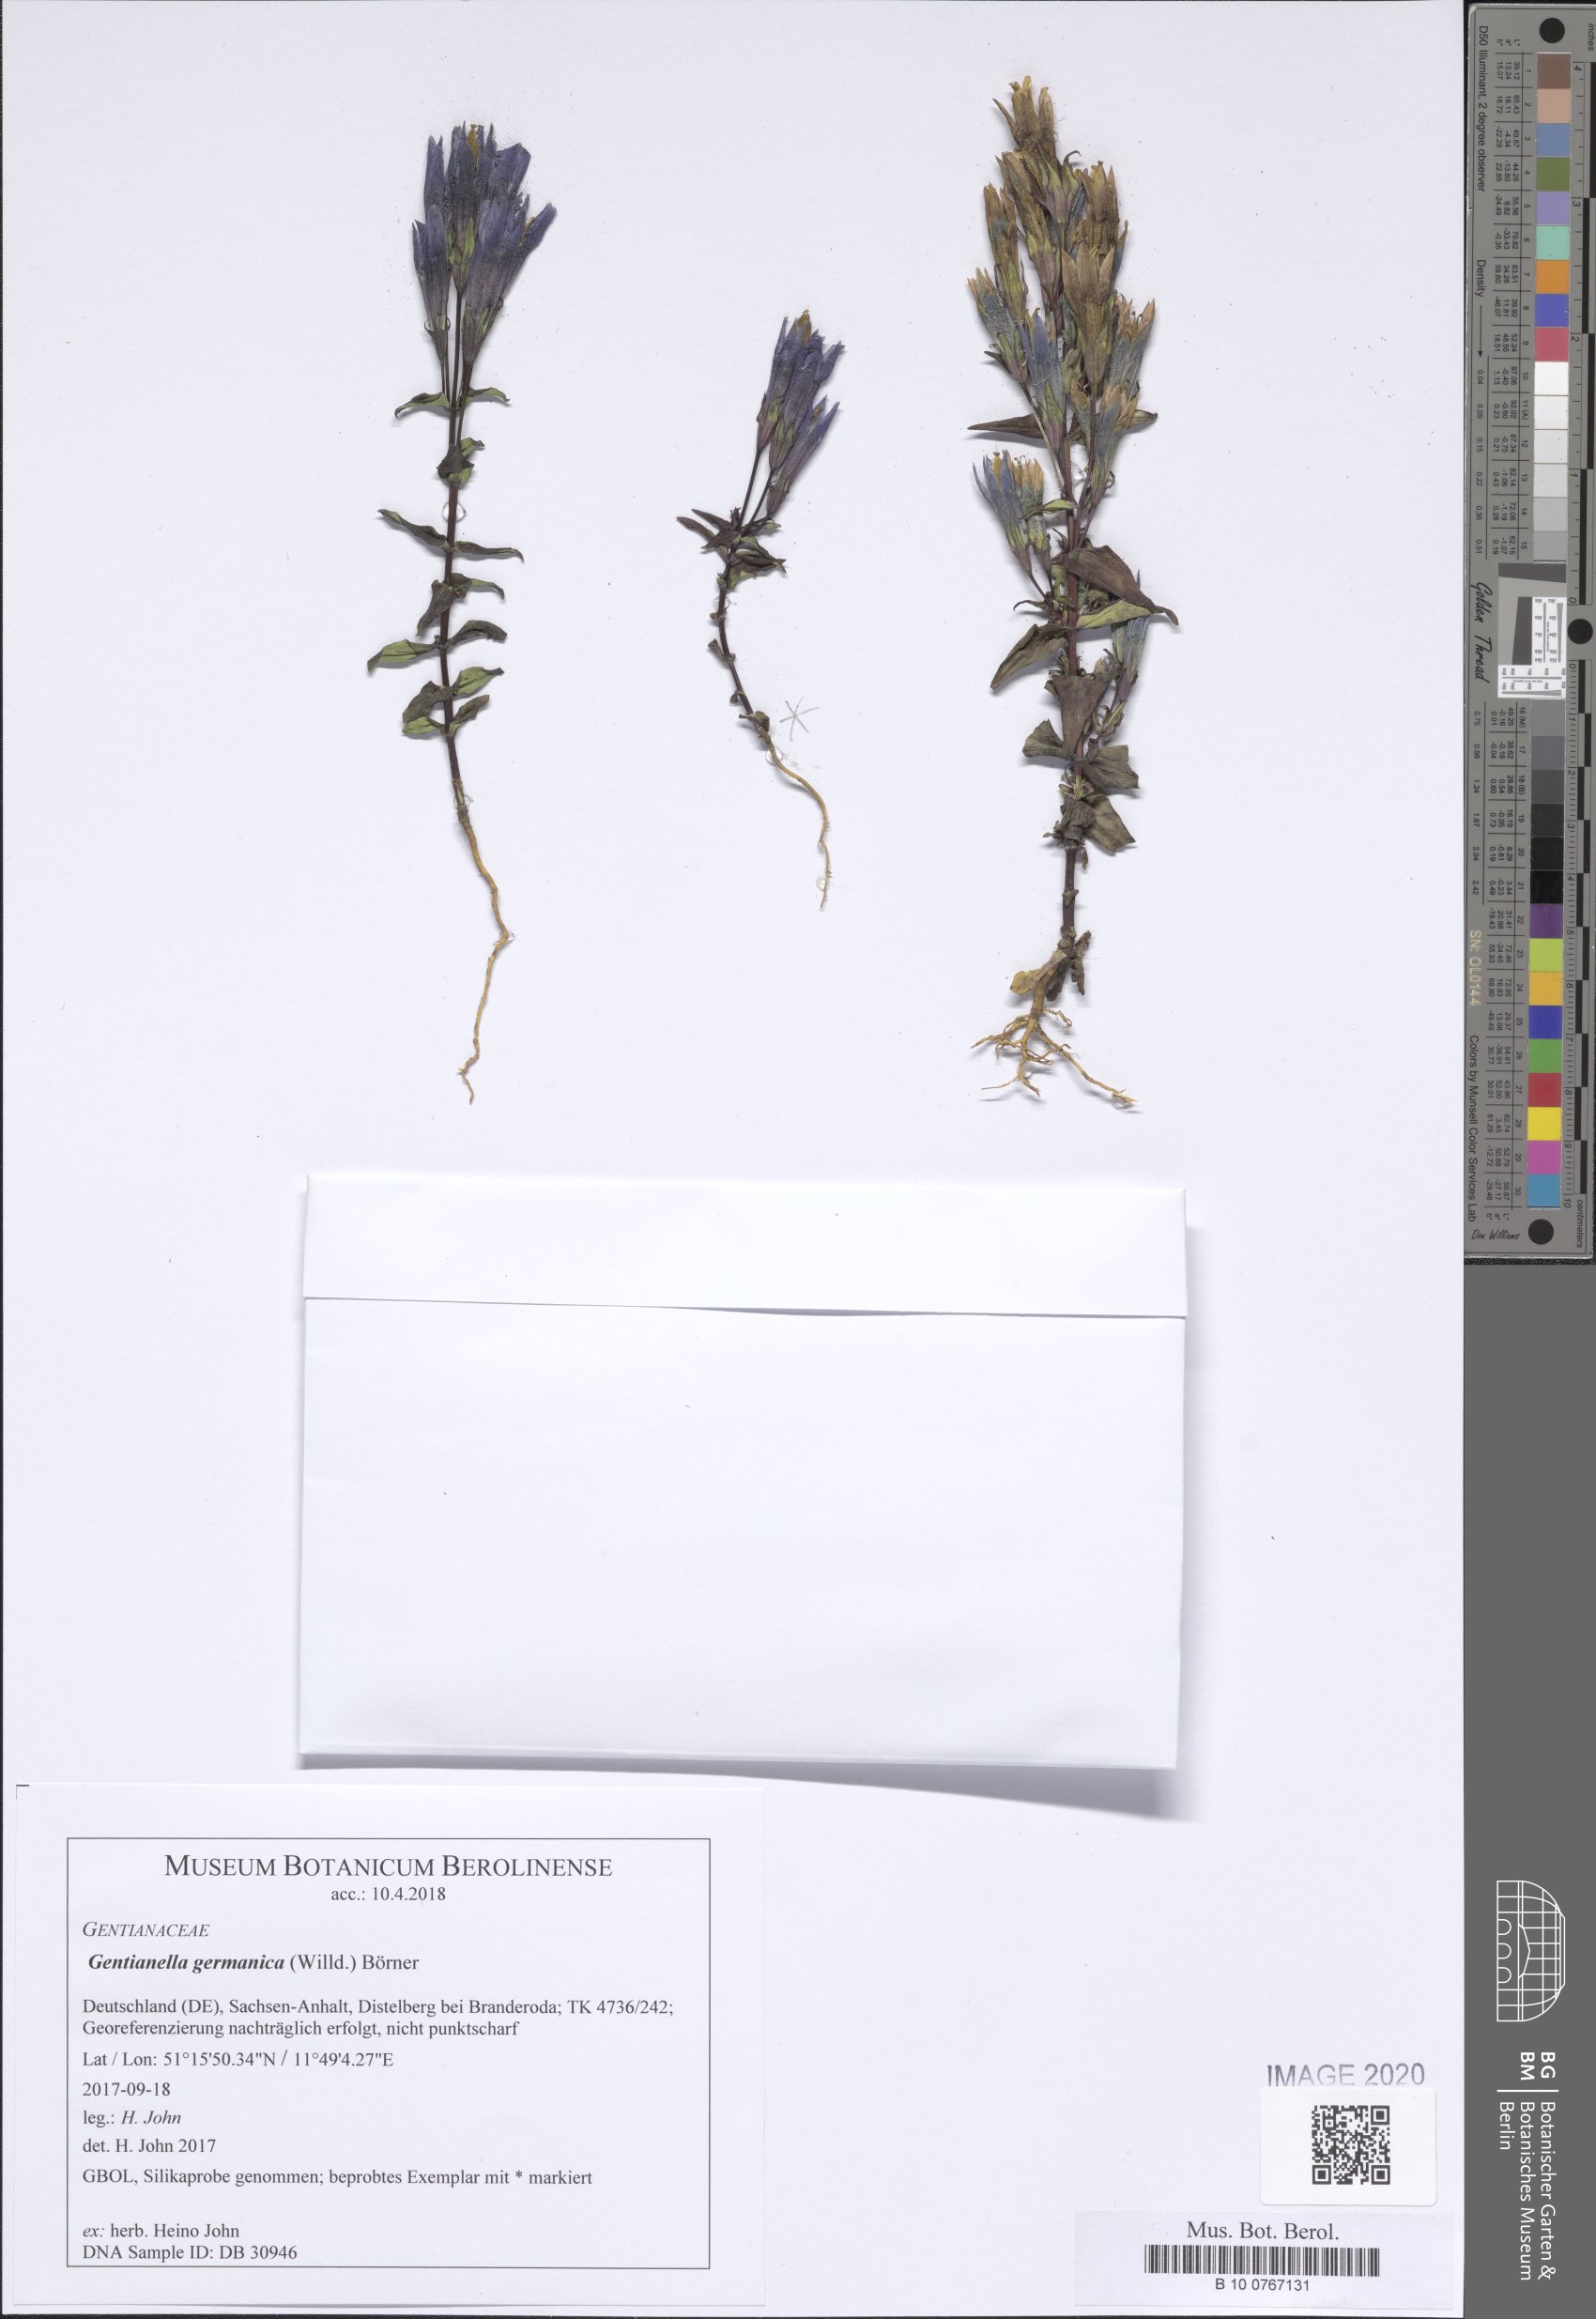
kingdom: Plantae
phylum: Tracheophyta
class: Magnoliopsida
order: Gentianales
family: Gentianaceae
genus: Gentianella
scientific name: Gentianella germanica
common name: Chiltern-gentian
